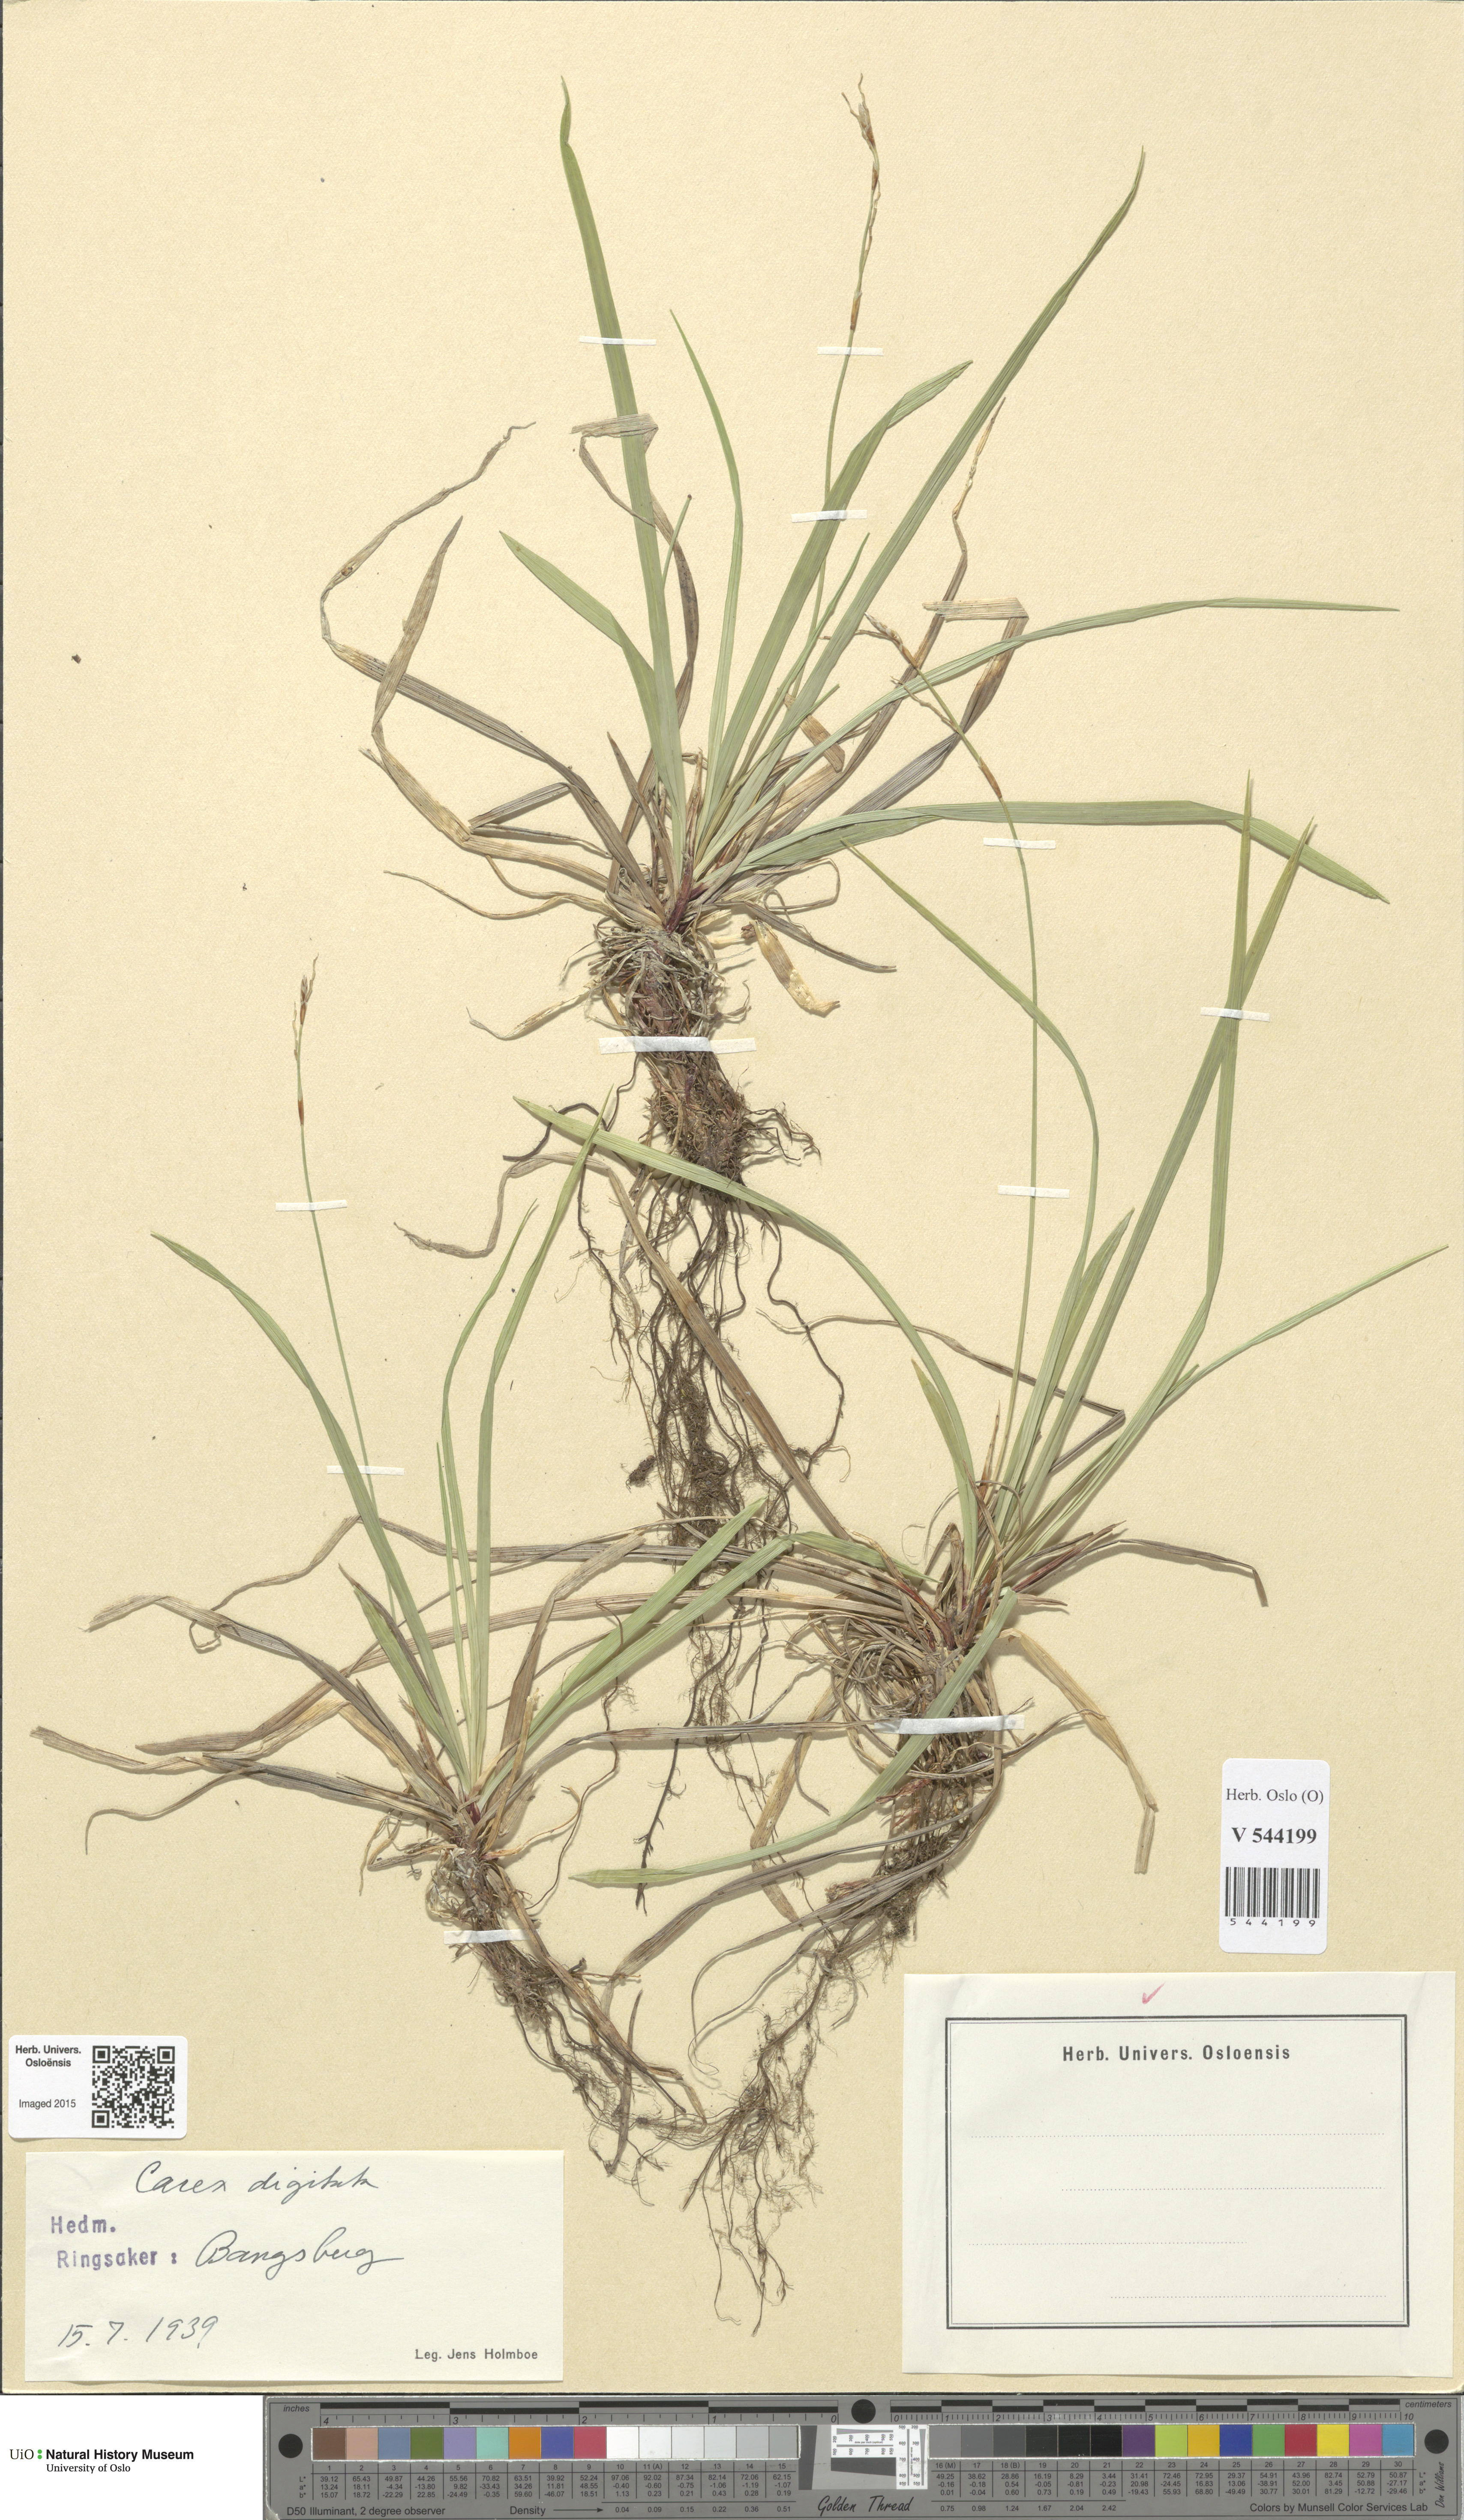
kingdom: Plantae
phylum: Tracheophyta
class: Liliopsida
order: Poales
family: Cyperaceae
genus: Carex
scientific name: Carex digitata
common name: Fingered sedge
